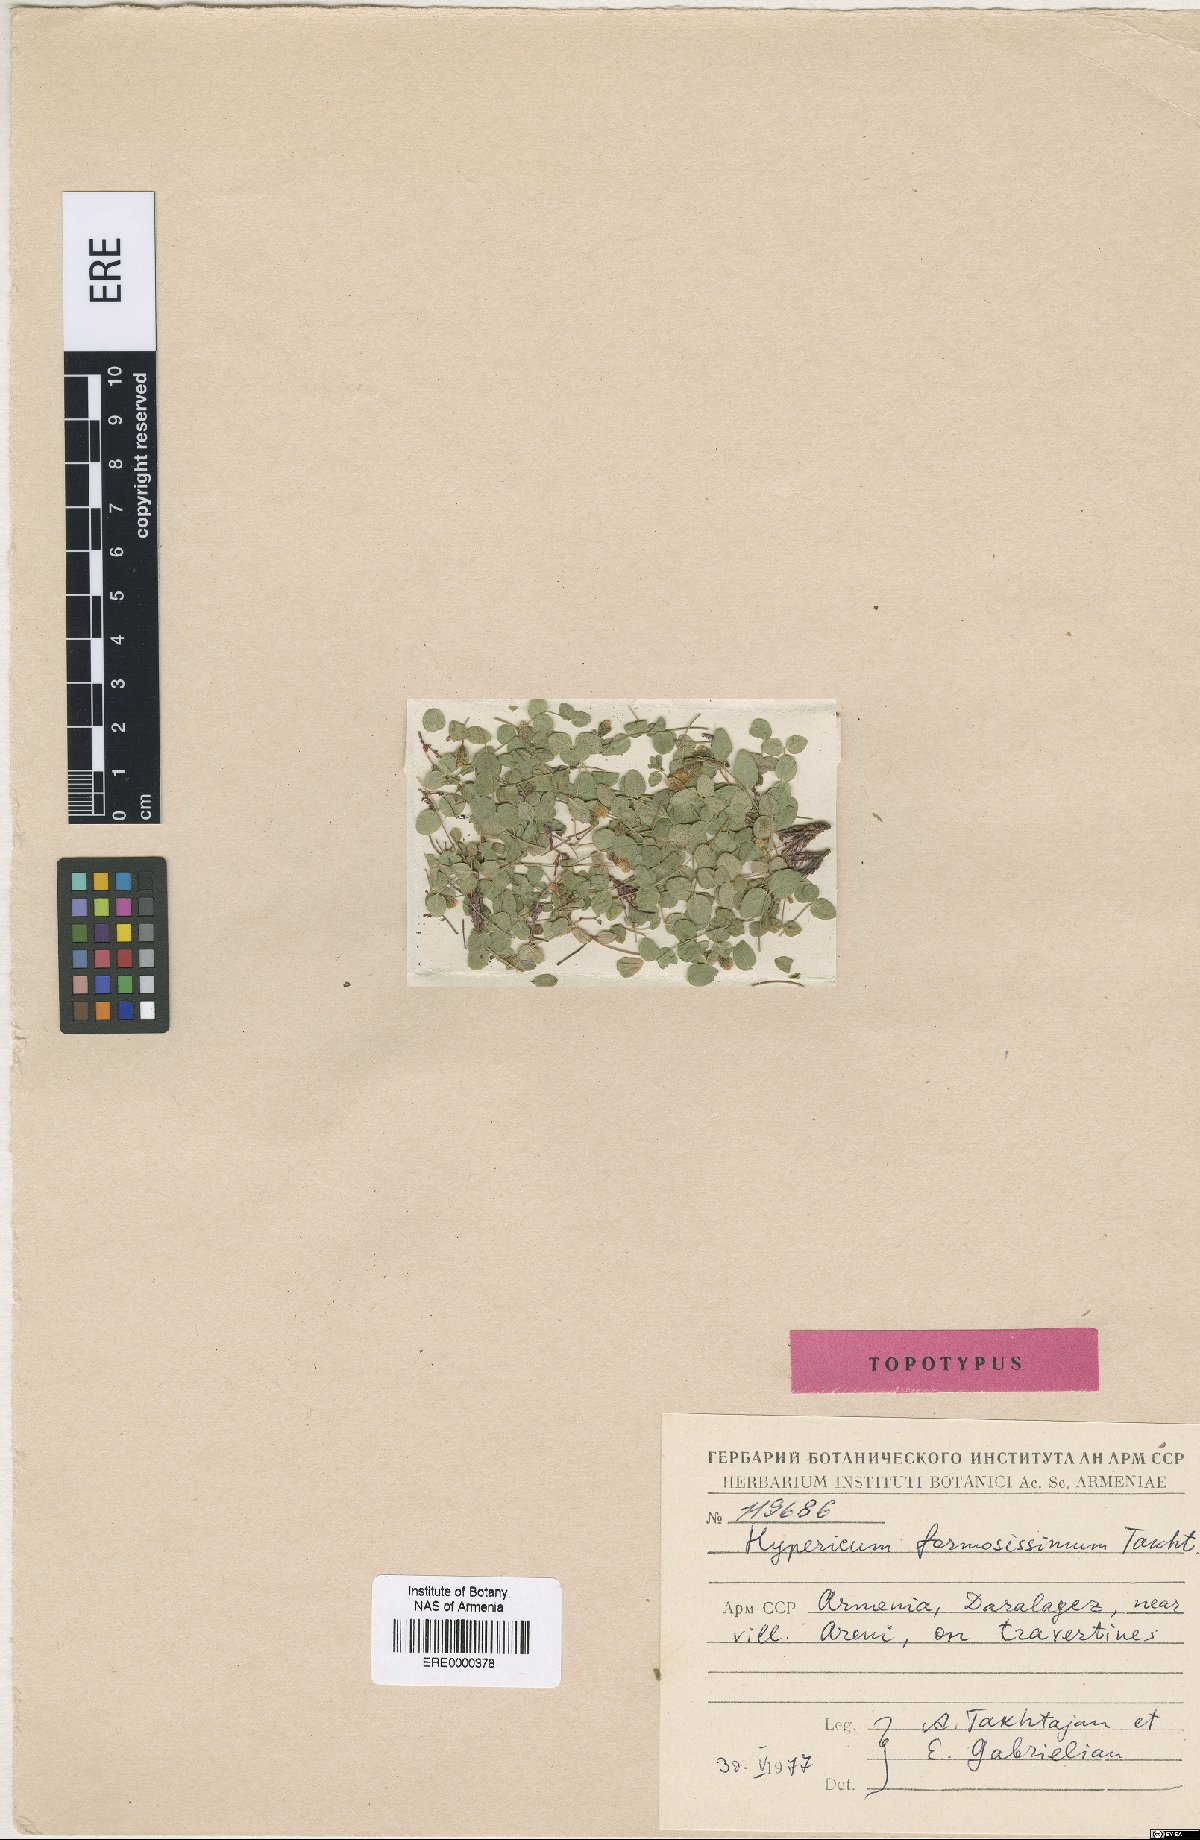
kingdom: Plantae
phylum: Tracheophyta
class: Magnoliopsida
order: Malpighiales
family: Hypericaceae
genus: Hypericum
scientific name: Hypericum formosissimum
